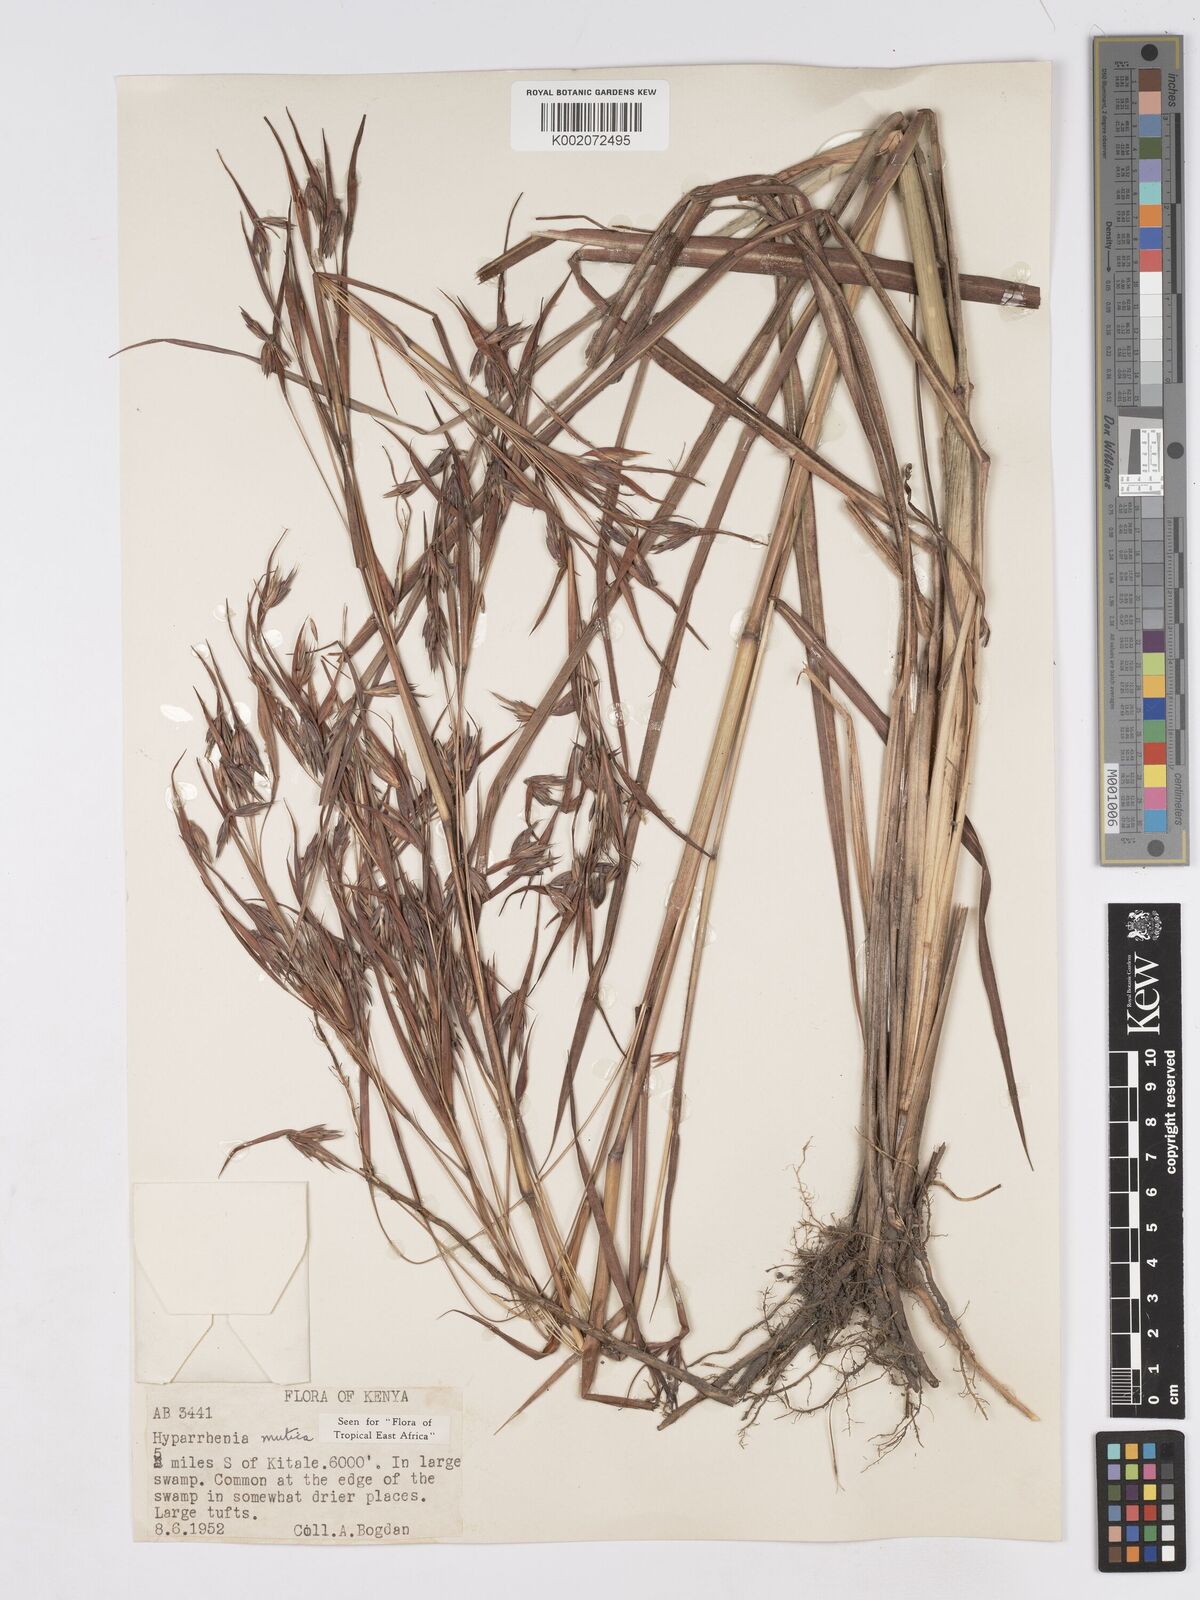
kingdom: Plantae
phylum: Tracheophyta
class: Liliopsida
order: Poales
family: Poaceae
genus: Hyparrhenia
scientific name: Hyparrhenia diplandra
